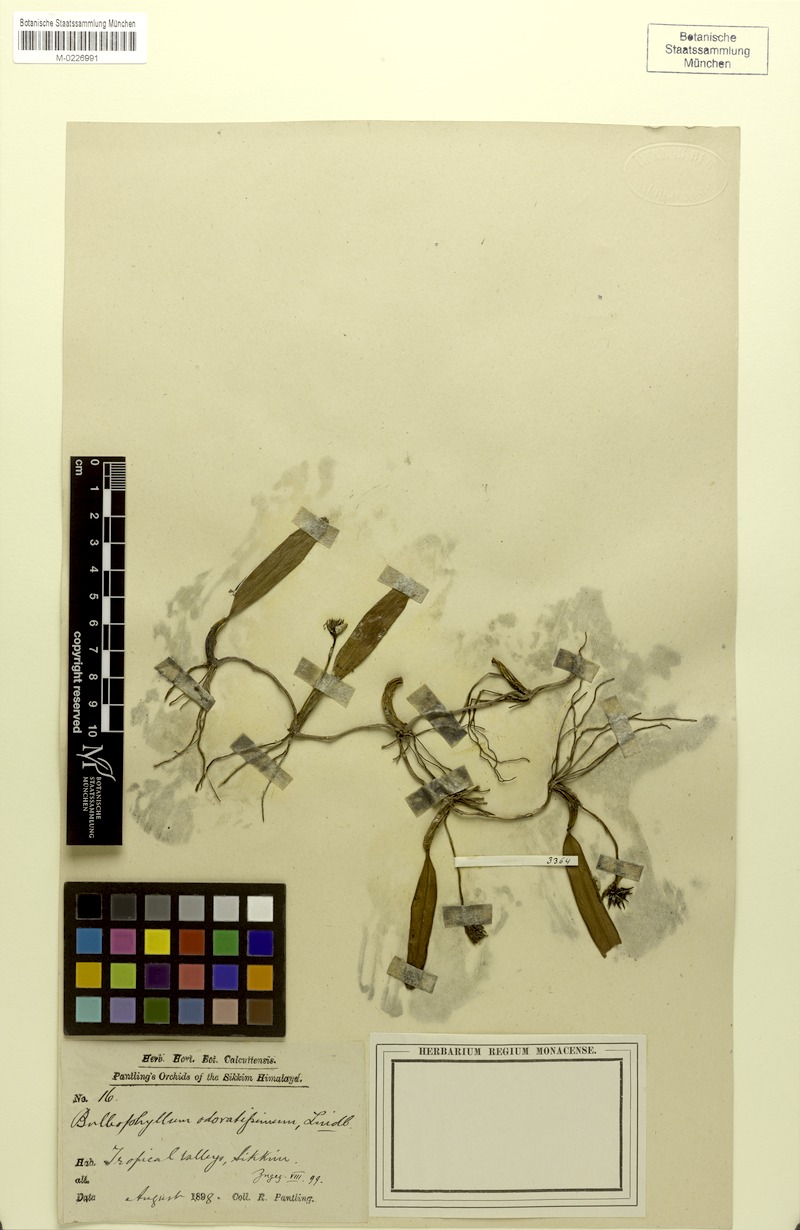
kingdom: Plantae
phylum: Tracheophyta
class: Liliopsida
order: Asparagales
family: Orchidaceae
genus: Bulbophyllum
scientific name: Bulbophyllum odoratissimum
